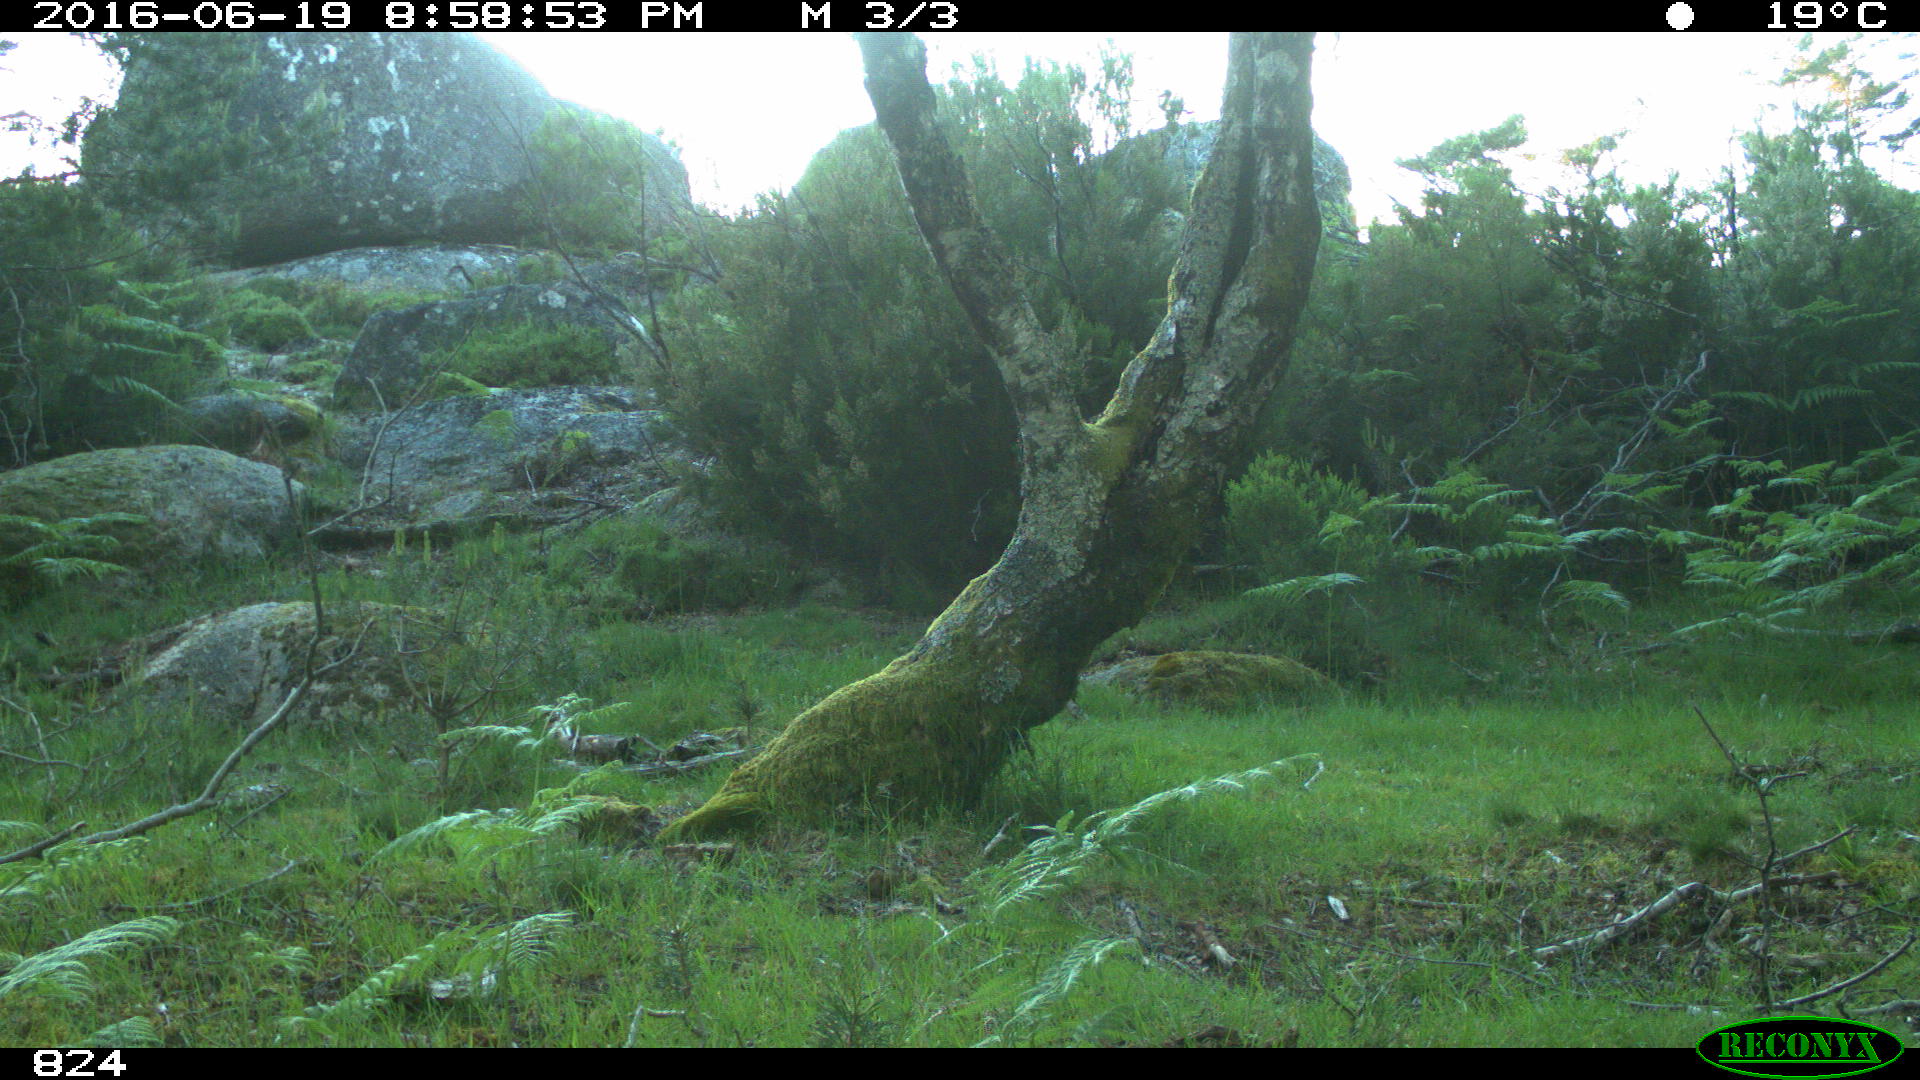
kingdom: Animalia
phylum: Chordata
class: Mammalia
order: Carnivora
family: Canidae
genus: Canis
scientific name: Canis lupus
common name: Gray wolf
